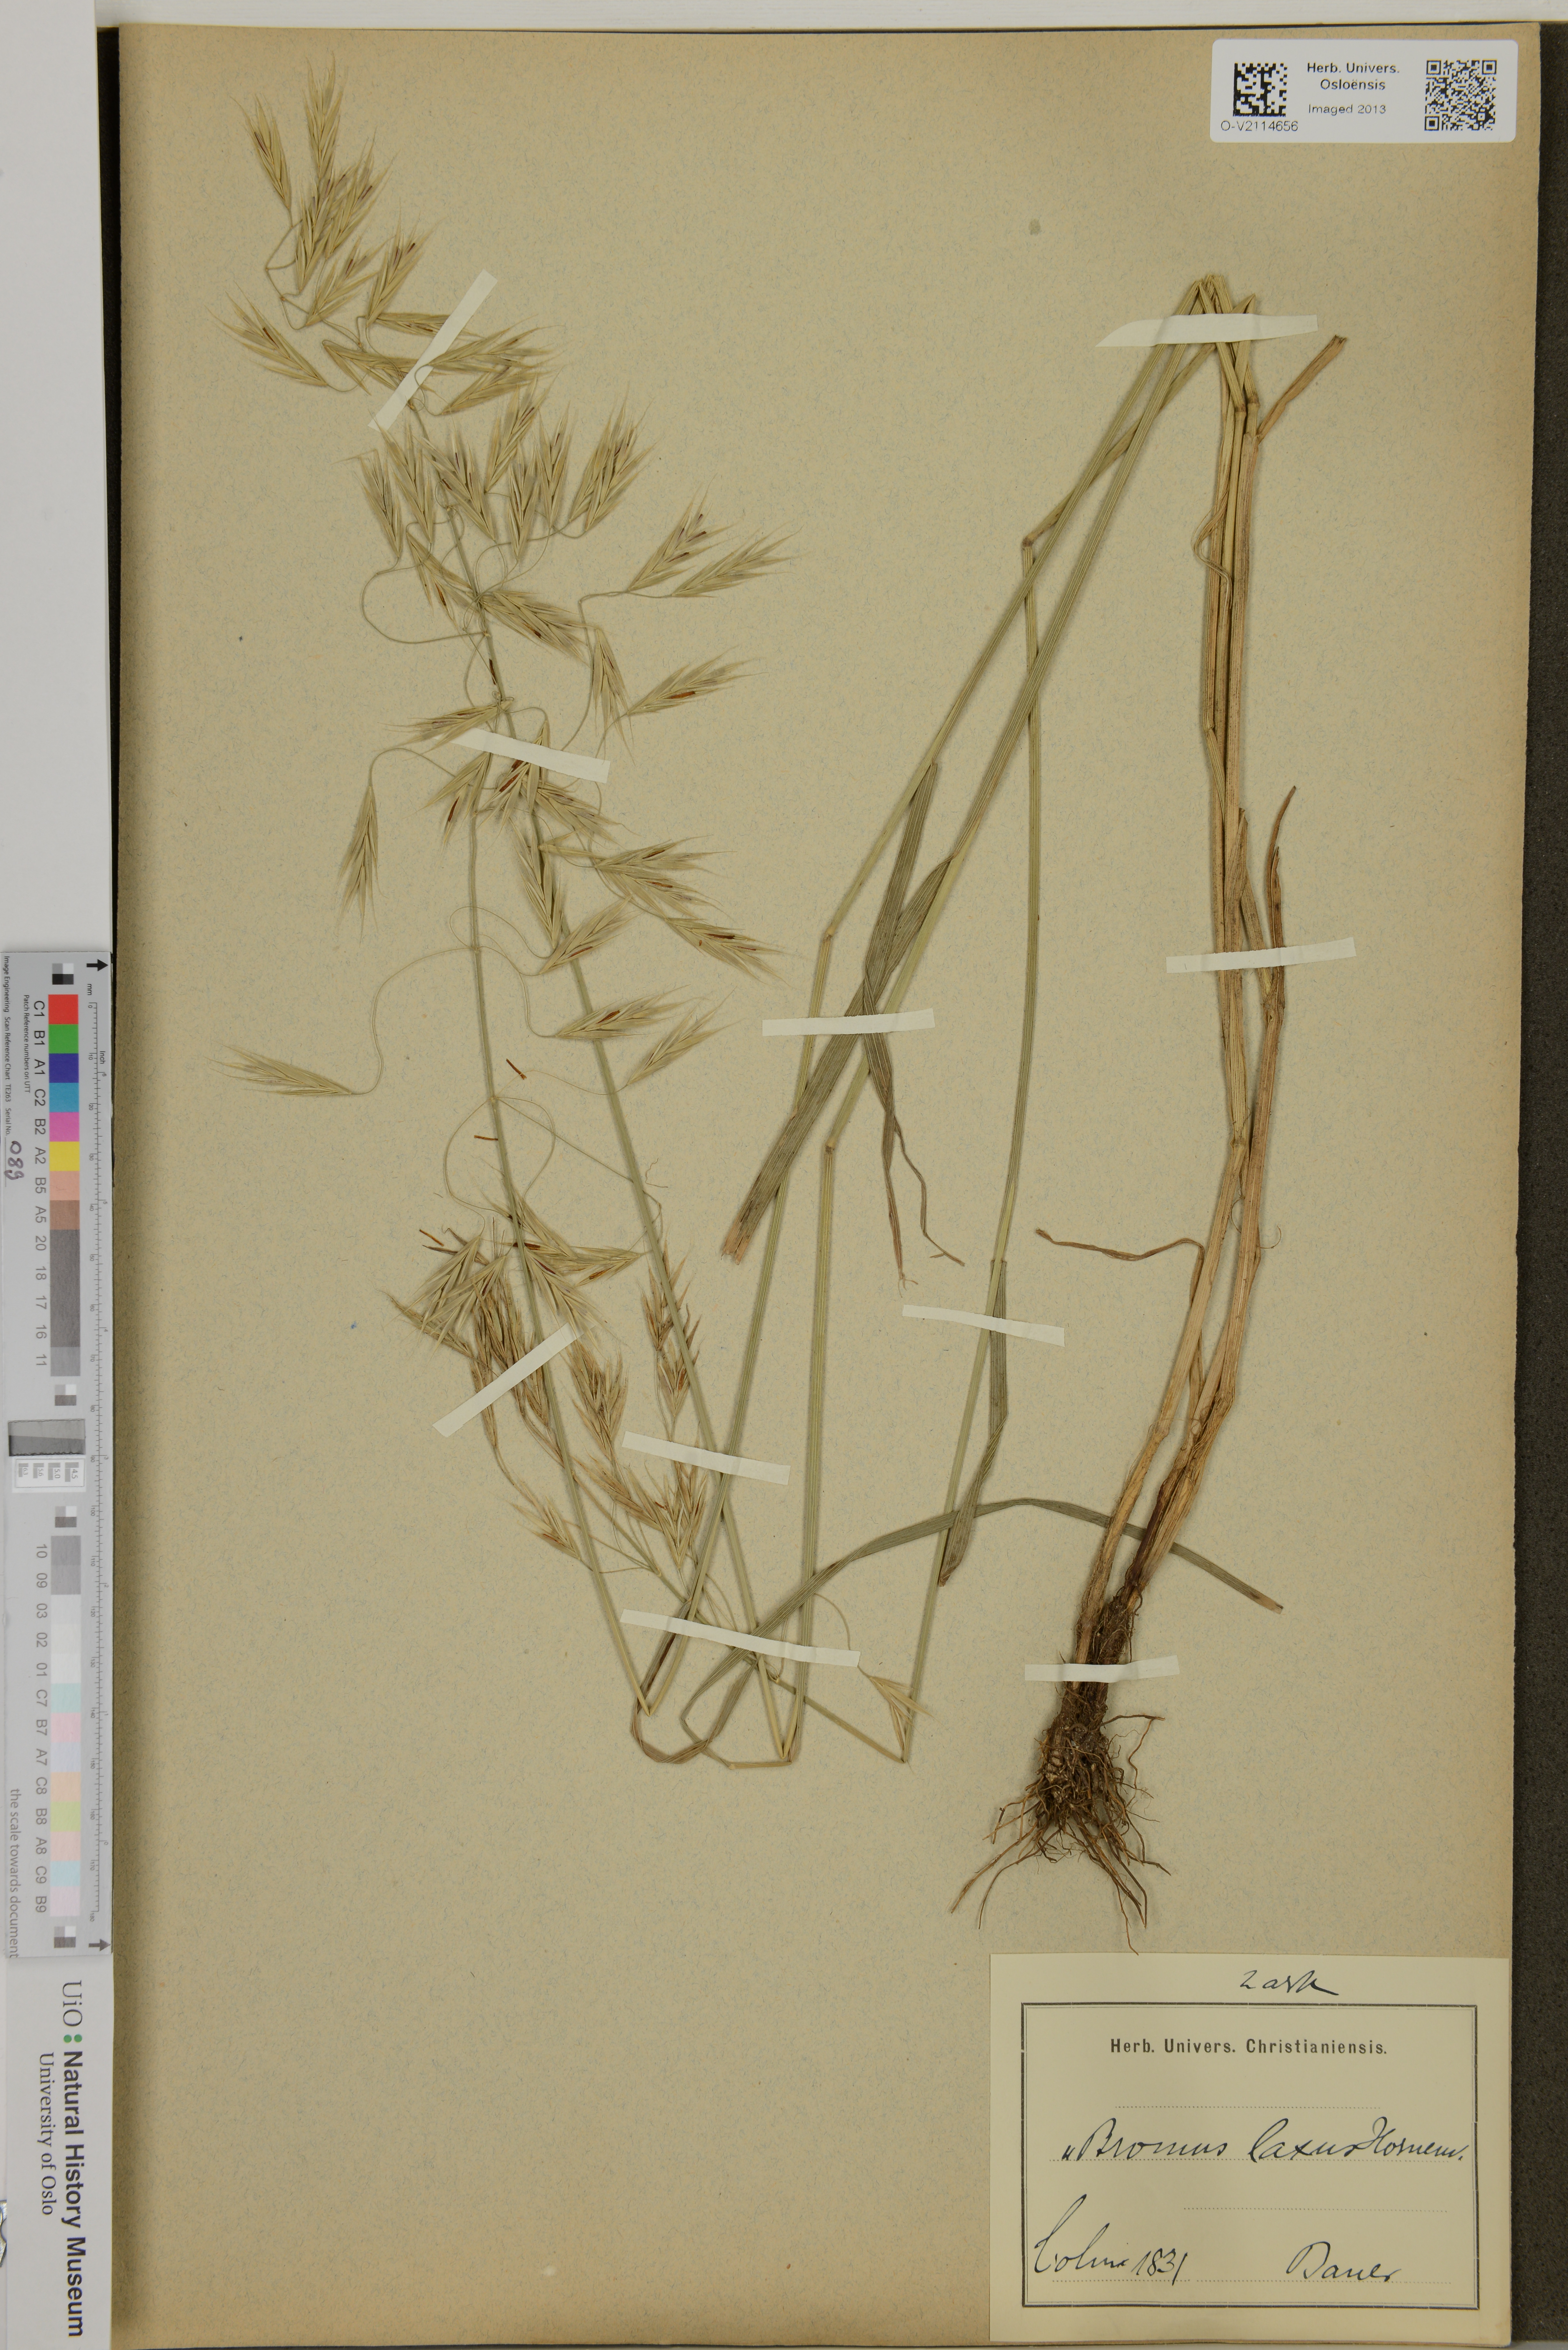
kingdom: Plantae
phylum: Tracheophyta
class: Liliopsida
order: Poales
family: Poaceae
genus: Bromus
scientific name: Bromus inermis
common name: Smooth brome
